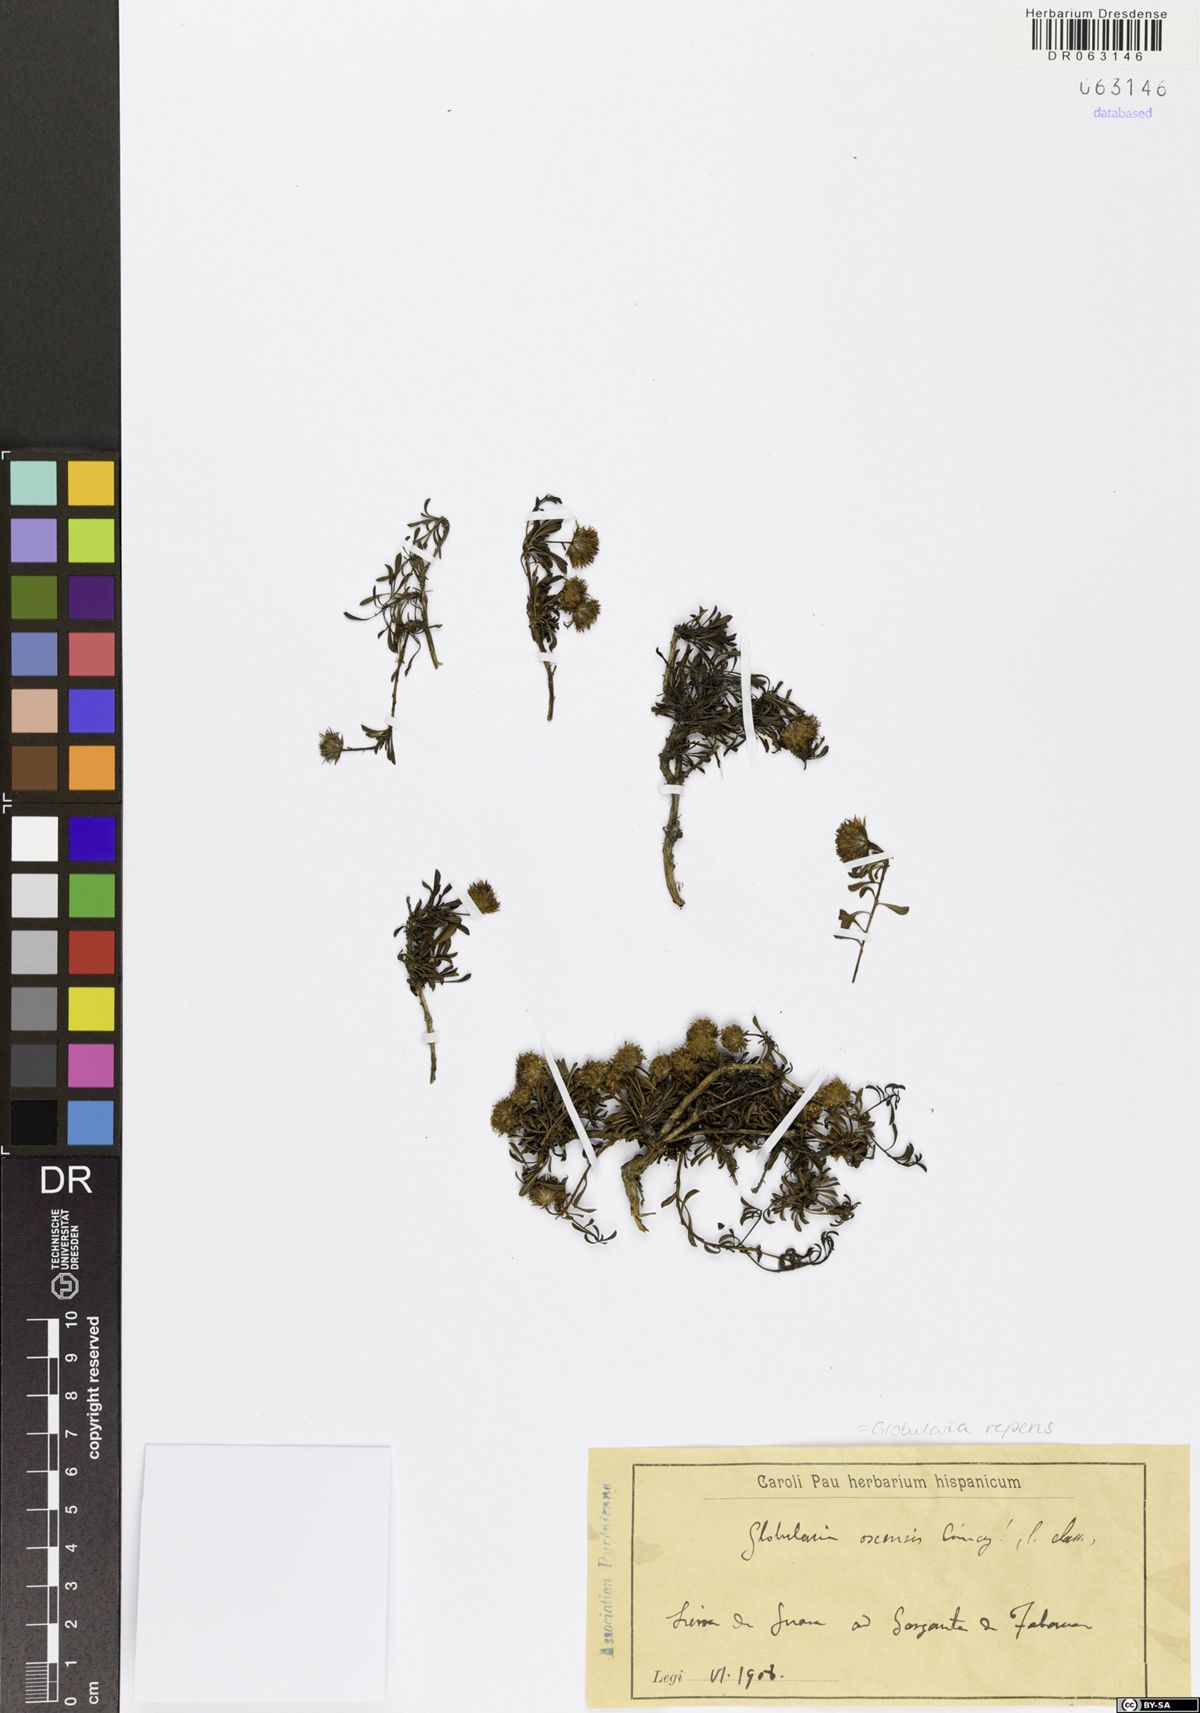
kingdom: Plantae
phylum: Tracheophyta
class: Magnoliopsida
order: Lamiales
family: Plantaginaceae
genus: Globularia
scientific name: Globularia repens
